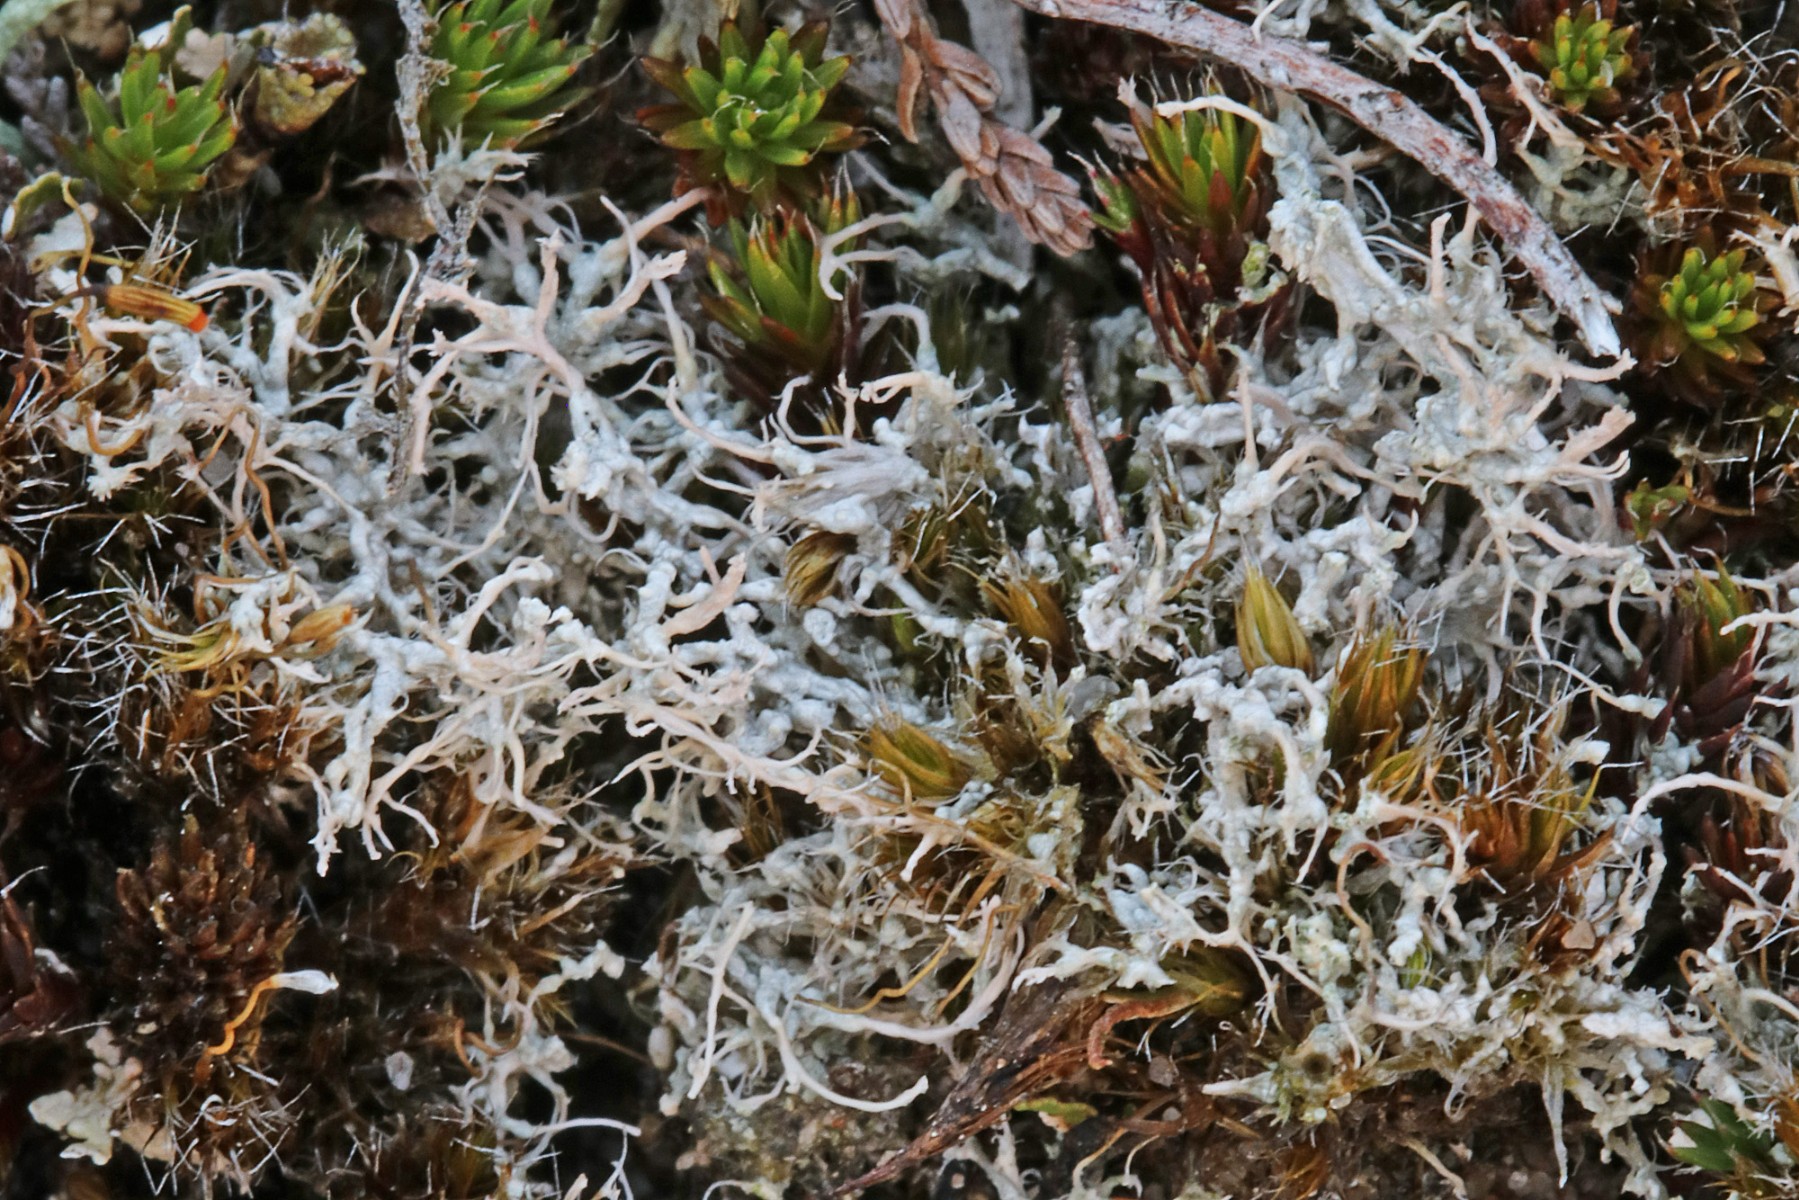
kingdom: Fungi
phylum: Ascomycota
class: Lecanoromycetes
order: Pertusariales
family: Ochrolechiaceae
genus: Ochrolechia
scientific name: Ochrolechia frigida
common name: fjeld-blegskivelav
